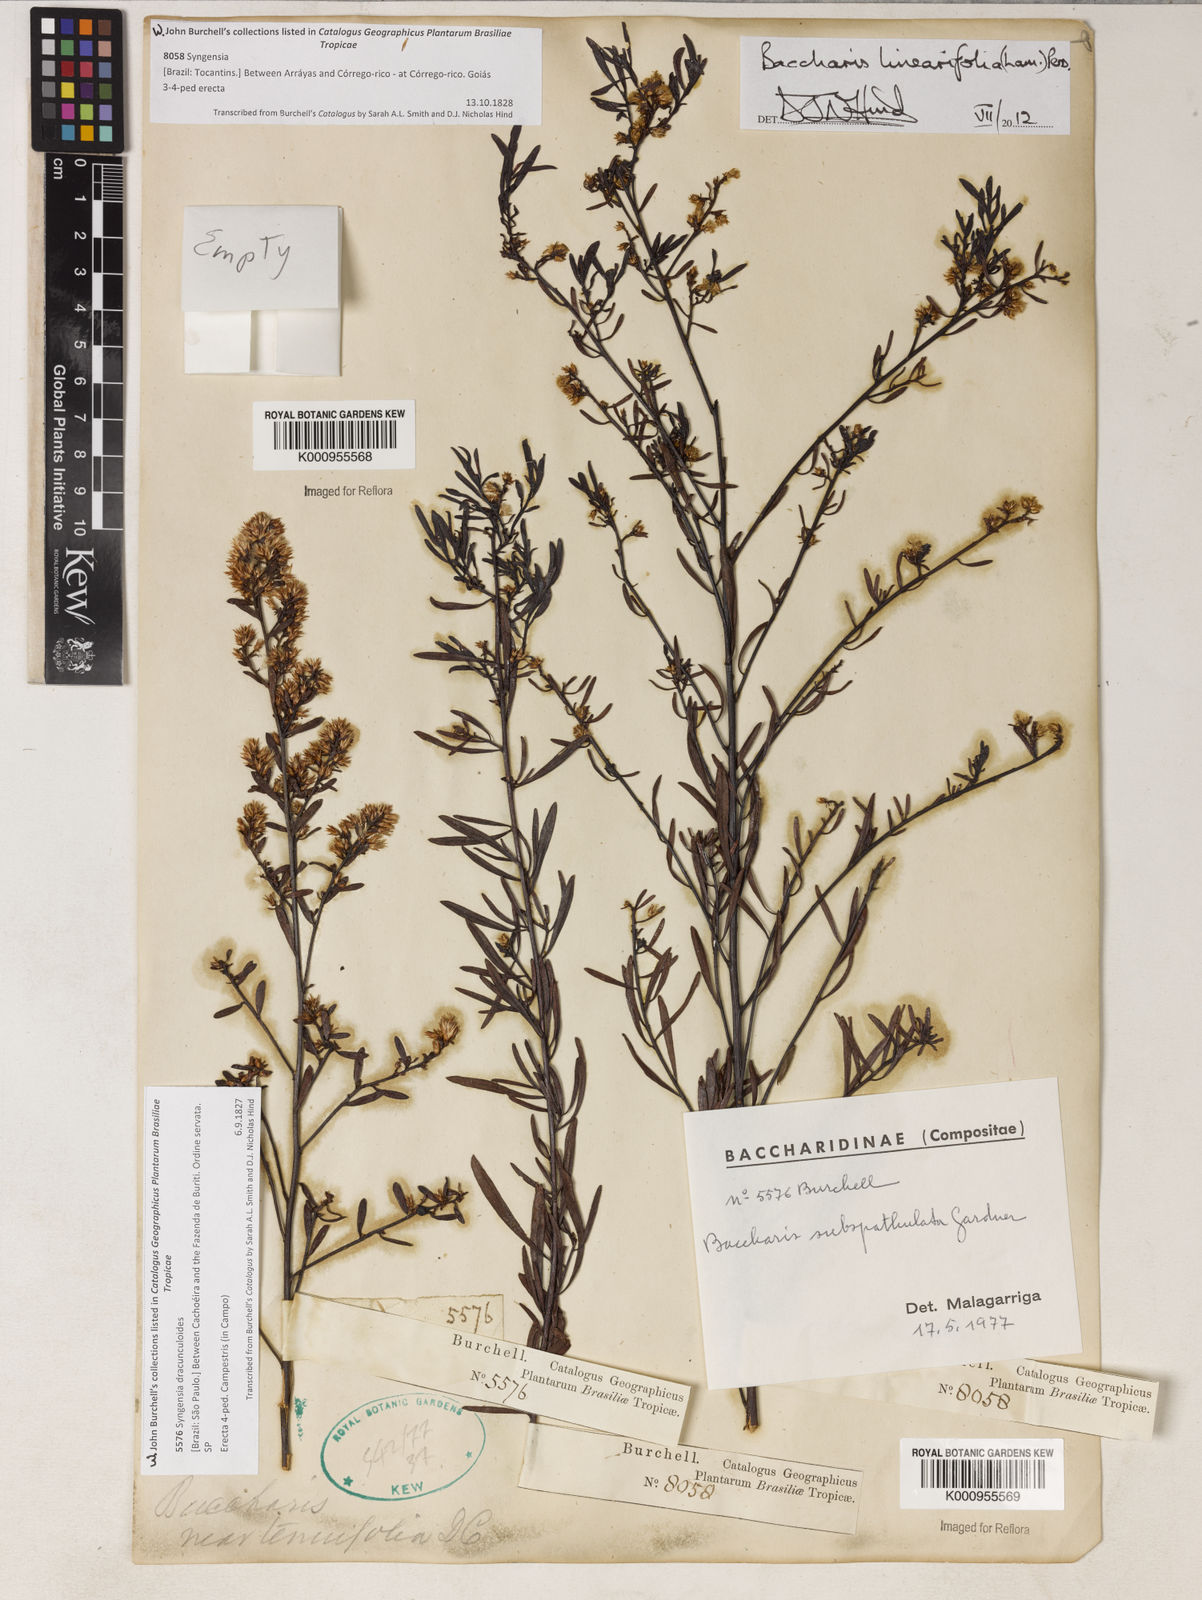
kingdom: Plantae
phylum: Tracheophyta
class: Magnoliopsida
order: Asterales
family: Asteraceae
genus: Baccharis
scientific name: Baccharis linearifolia
